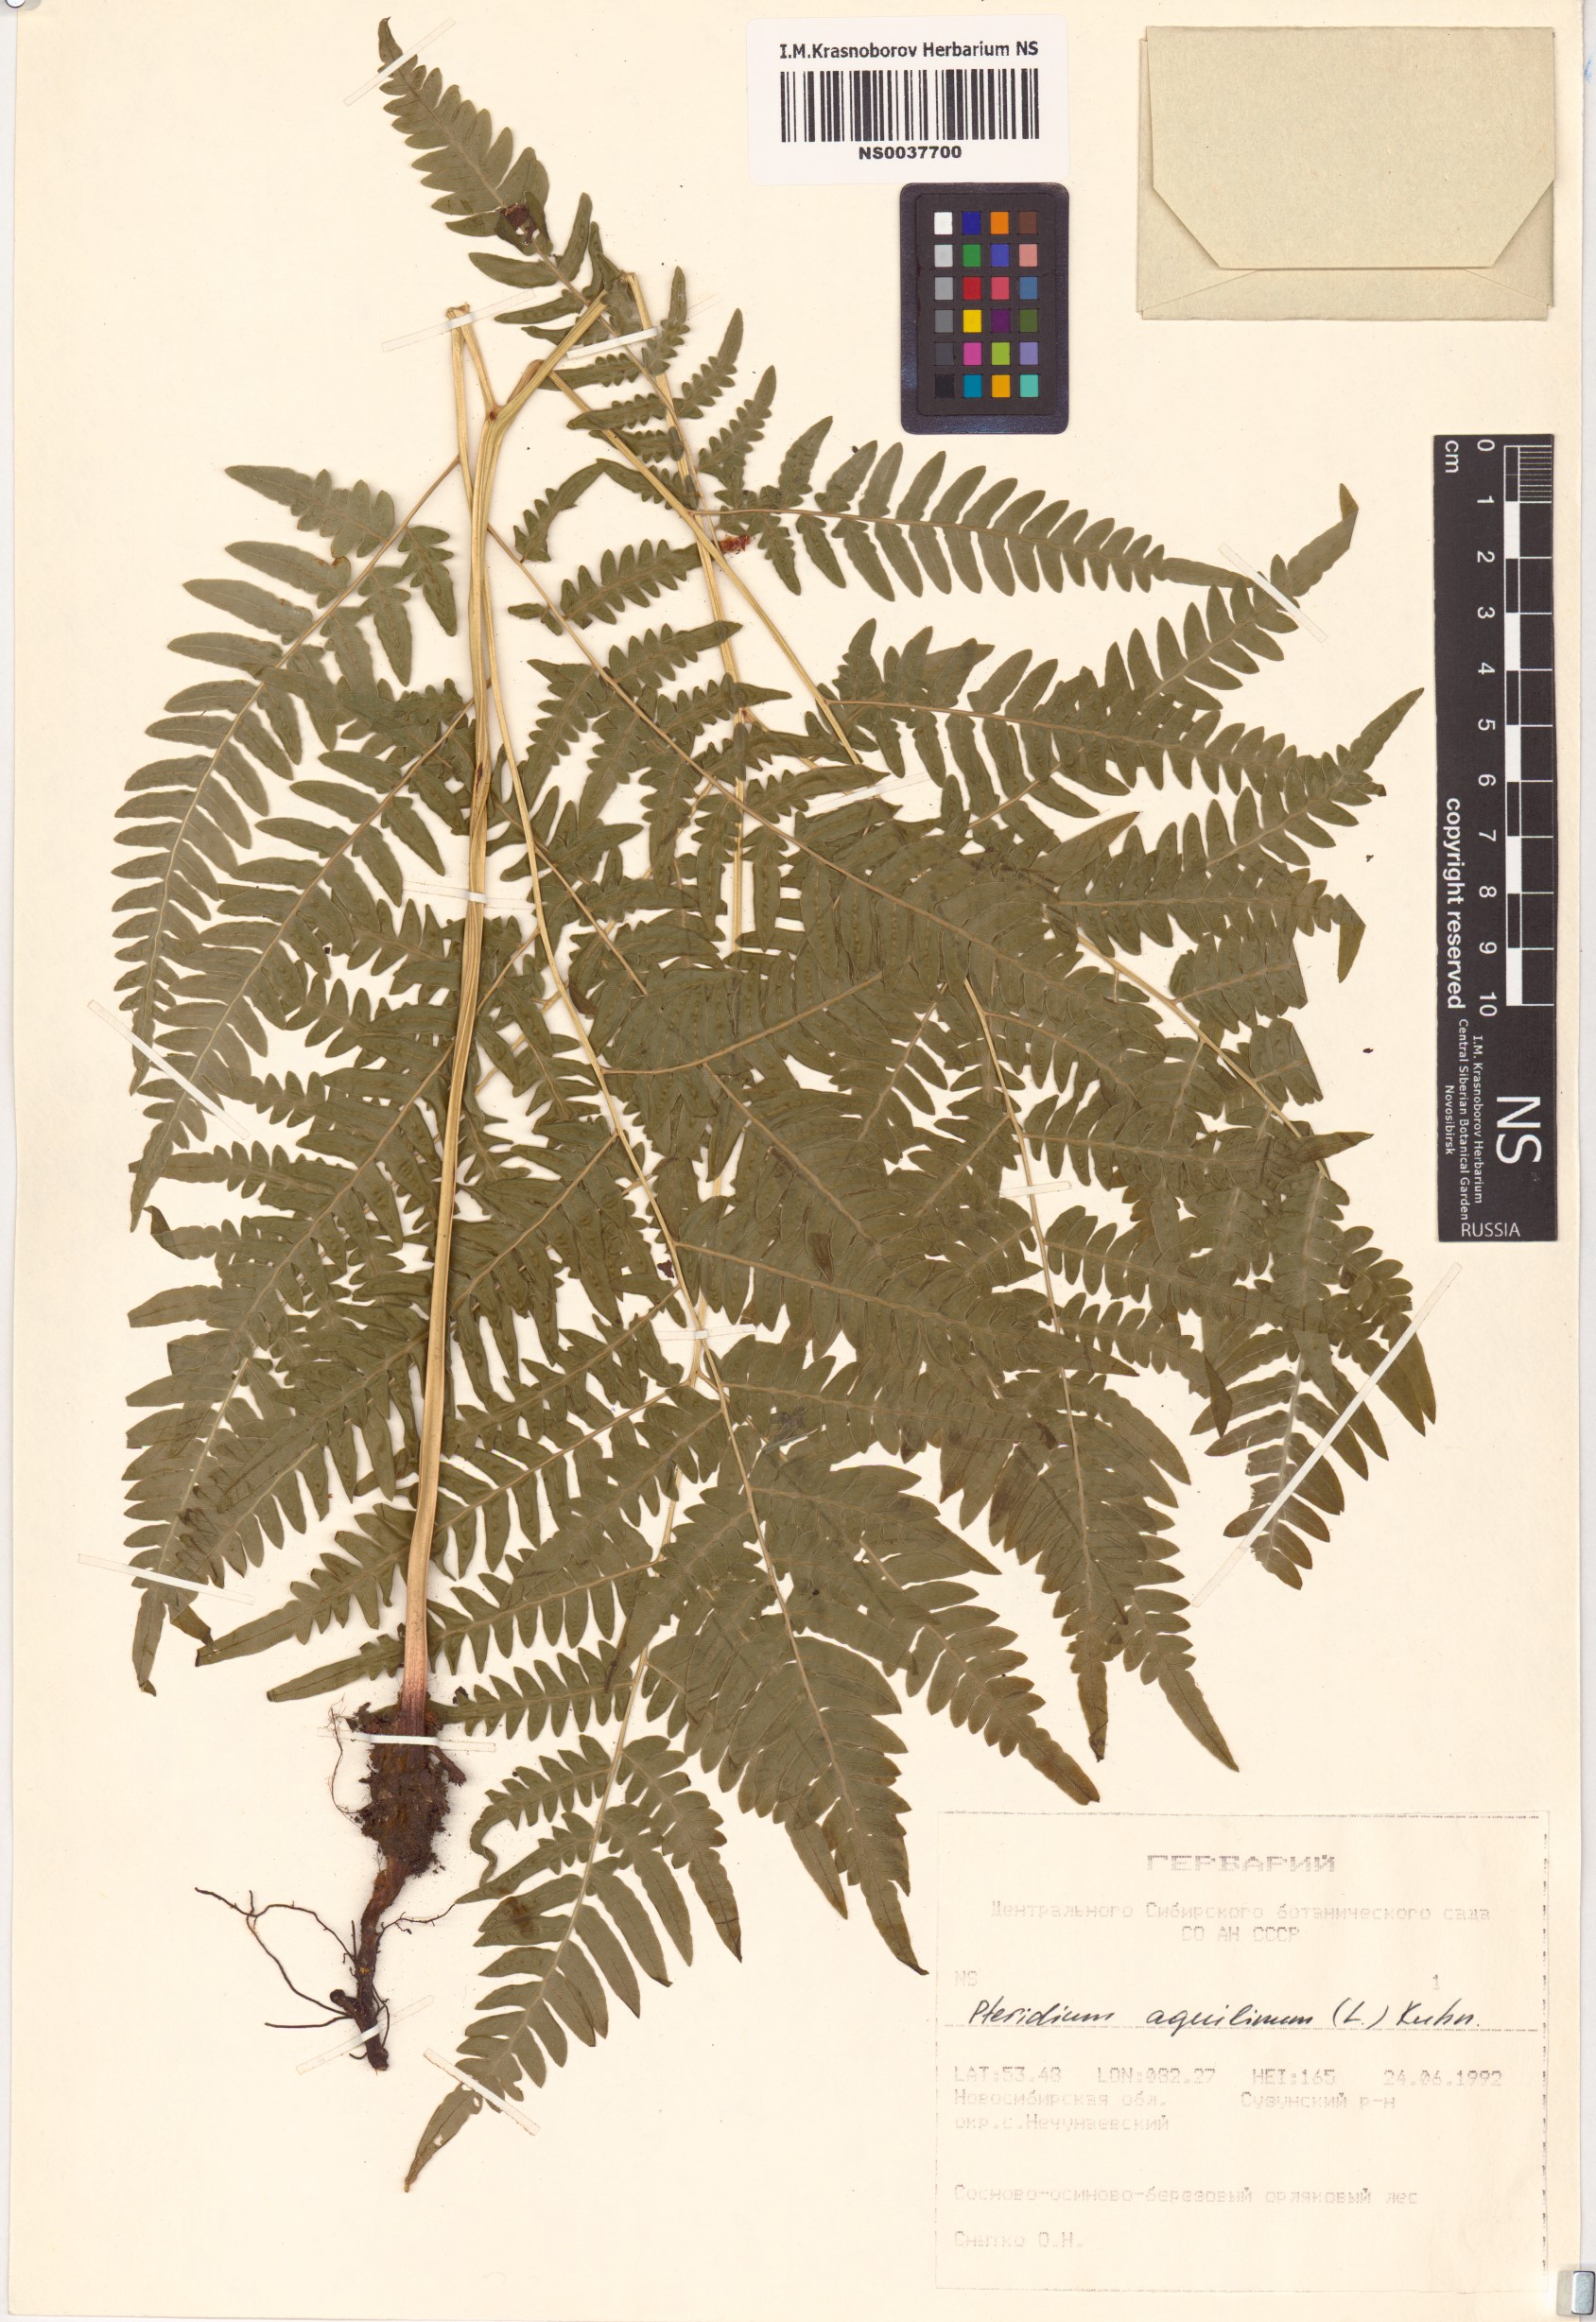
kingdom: Plantae
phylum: Tracheophyta
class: Polypodiopsida
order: Polypodiales
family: Dennstaedtiaceae
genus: Pteridium
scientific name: Pteridium aquilinum
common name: Bracken
